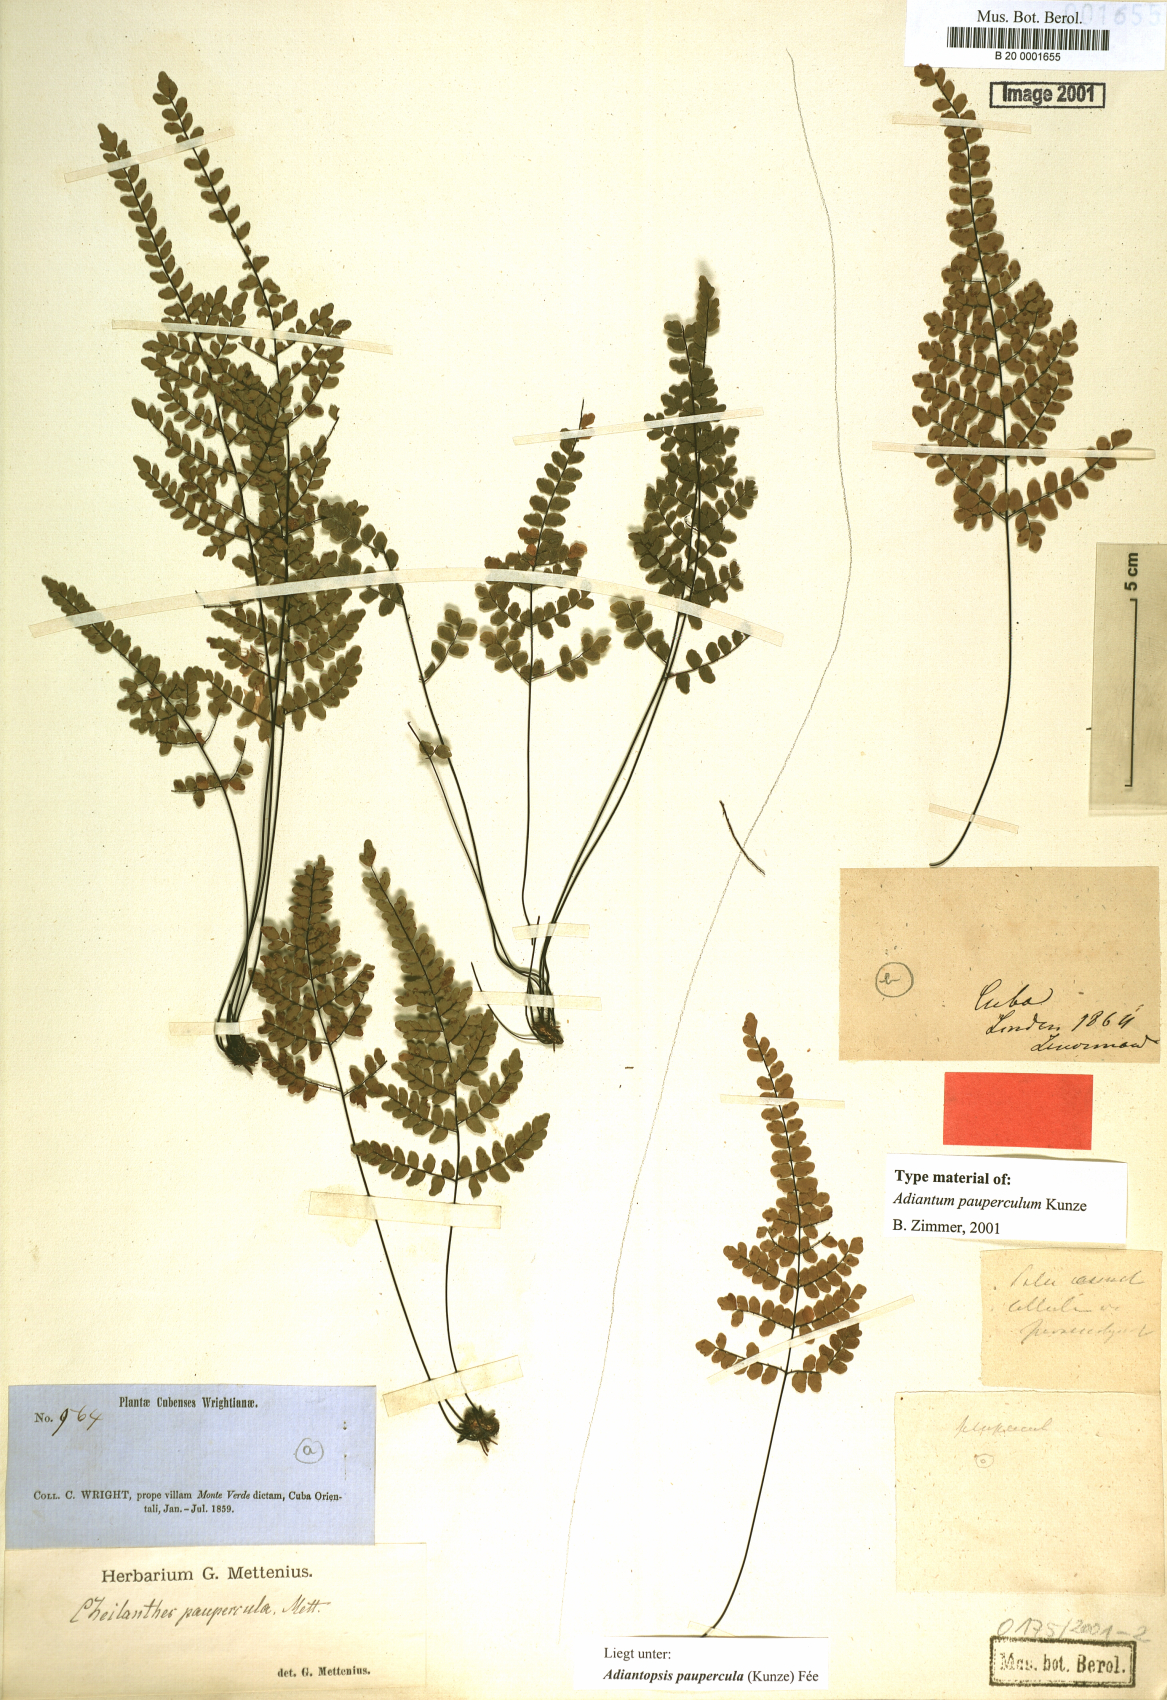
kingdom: Plantae
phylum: Tracheophyta
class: Polypodiopsida
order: Polypodiales
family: Pteridaceae
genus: Adiantopsis
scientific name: Adiantopsis paupercula
